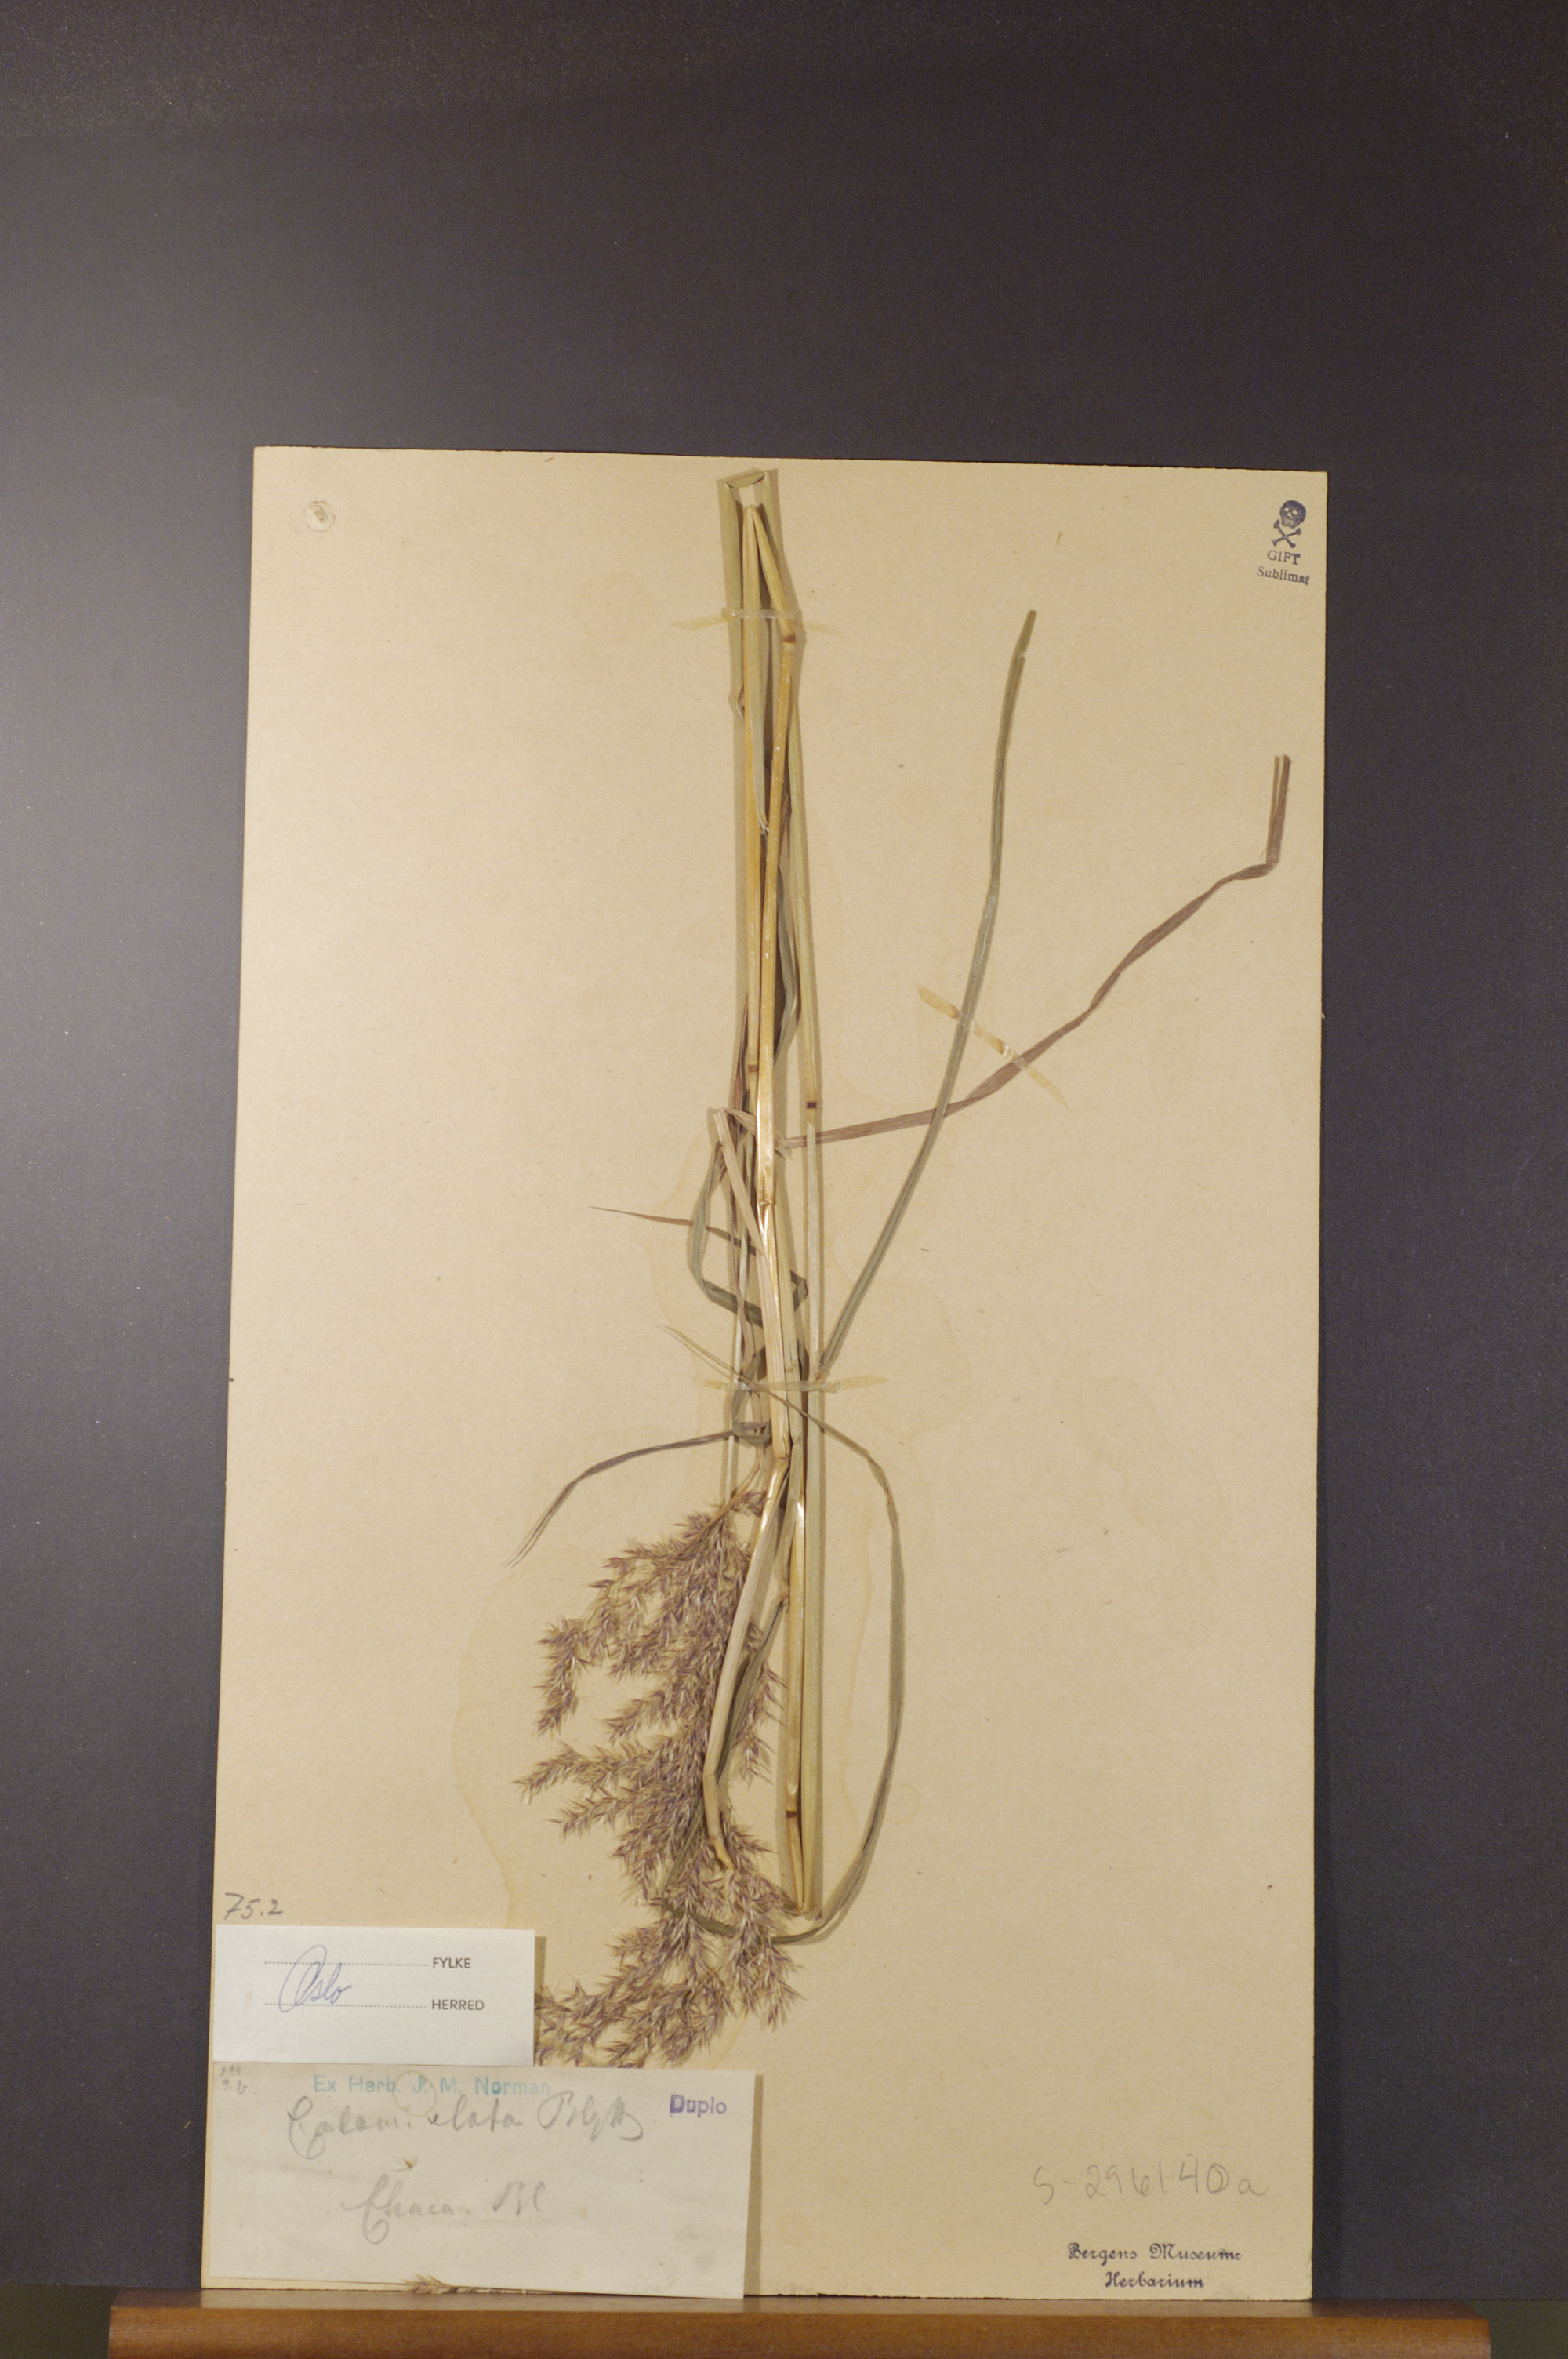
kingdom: Plantae
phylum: Tracheophyta
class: Liliopsida
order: Poales
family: Poaceae
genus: Calamagrostis
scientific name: Calamagrostis purpurea
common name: Scandinavian small-reed
